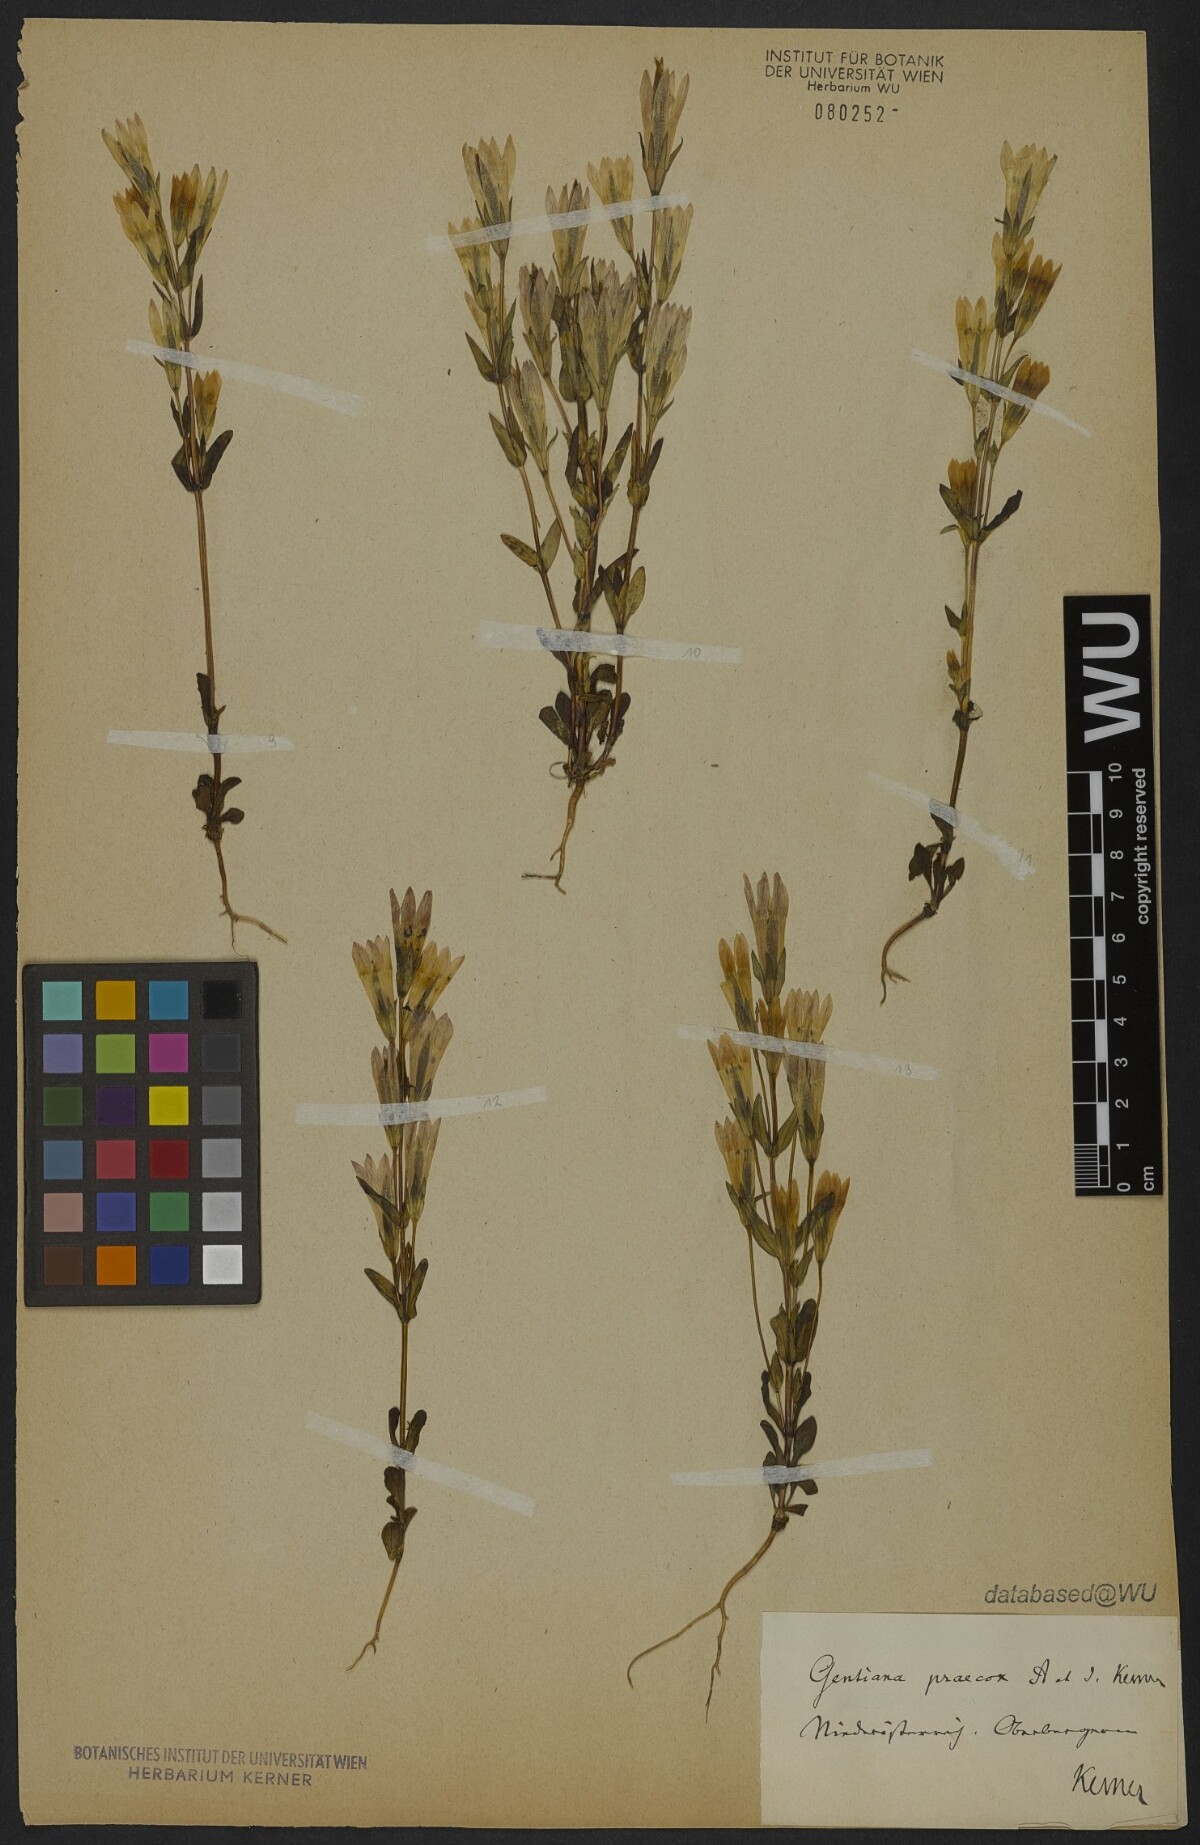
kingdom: Plantae
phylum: Tracheophyta
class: Magnoliopsida
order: Gentianales
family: Gentianaceae
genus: Gentianella
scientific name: Gentianella praecox
